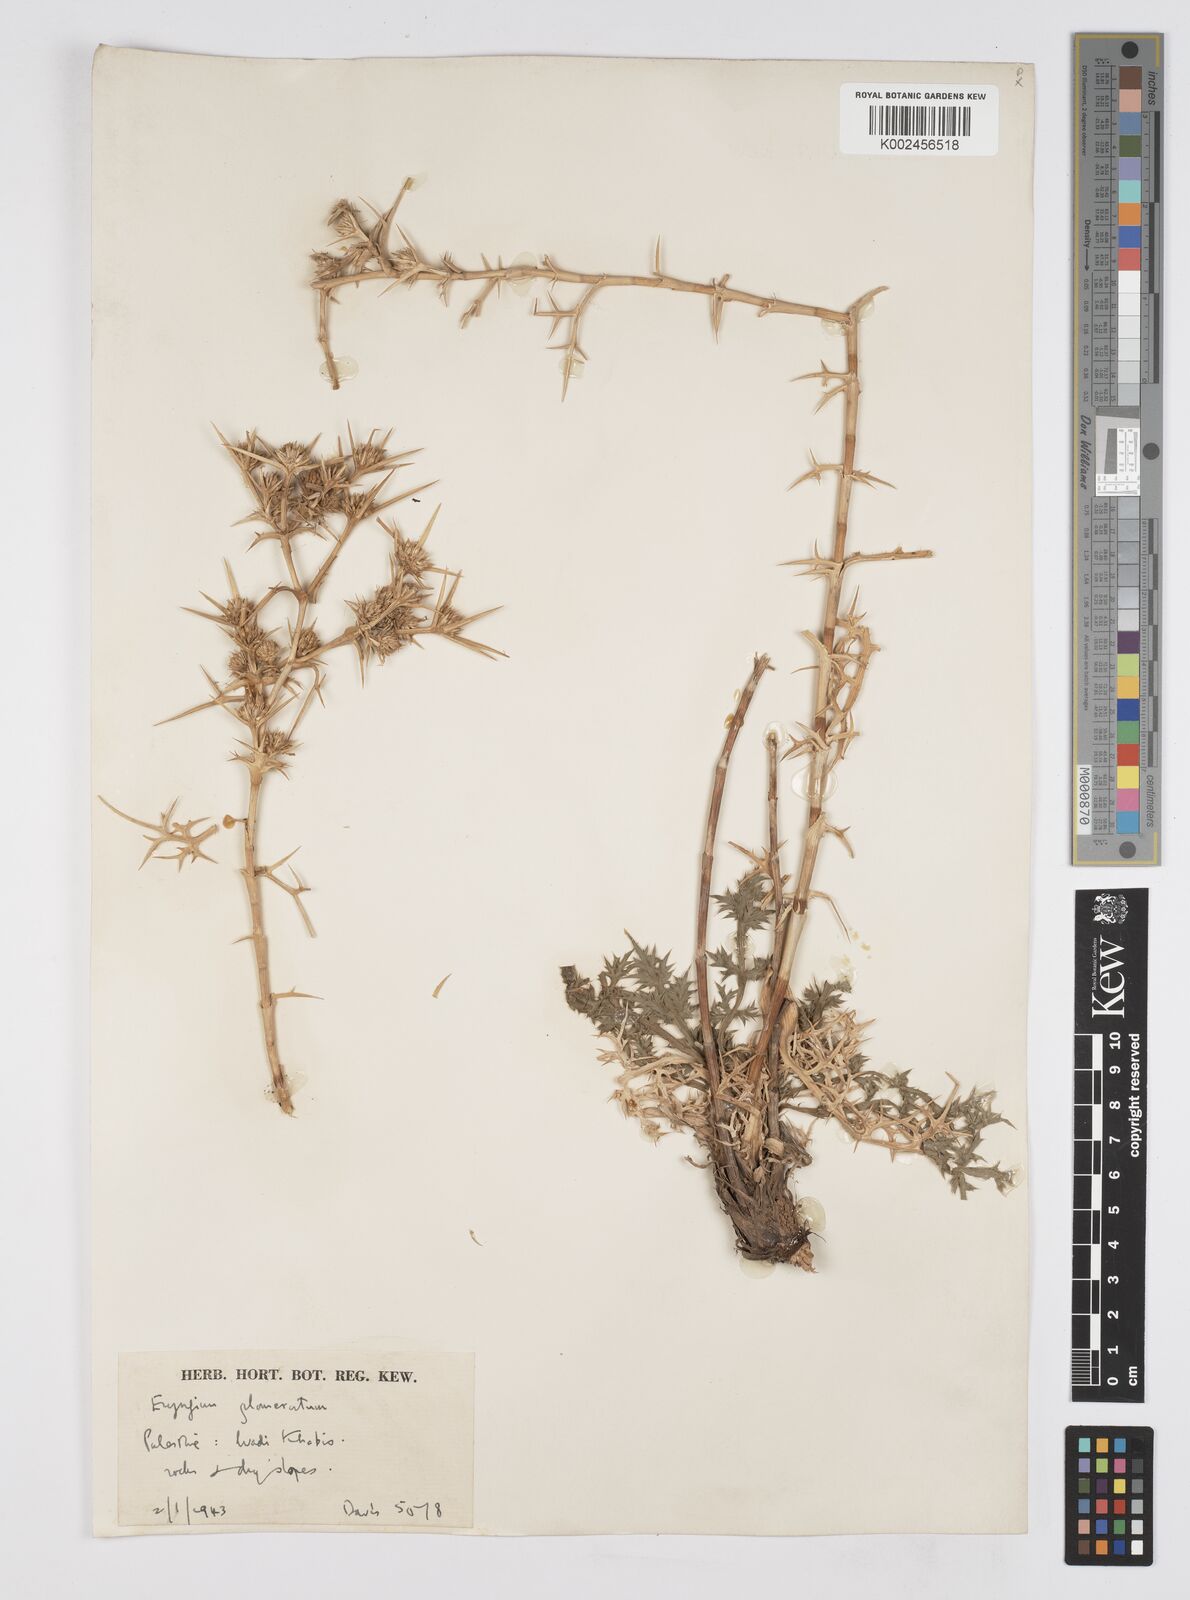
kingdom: Plantae
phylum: Tracheophyta
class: Magnoliopsida
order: Apiales
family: Apiaceae
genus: Eryngium
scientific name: Eryngium glomeratum
